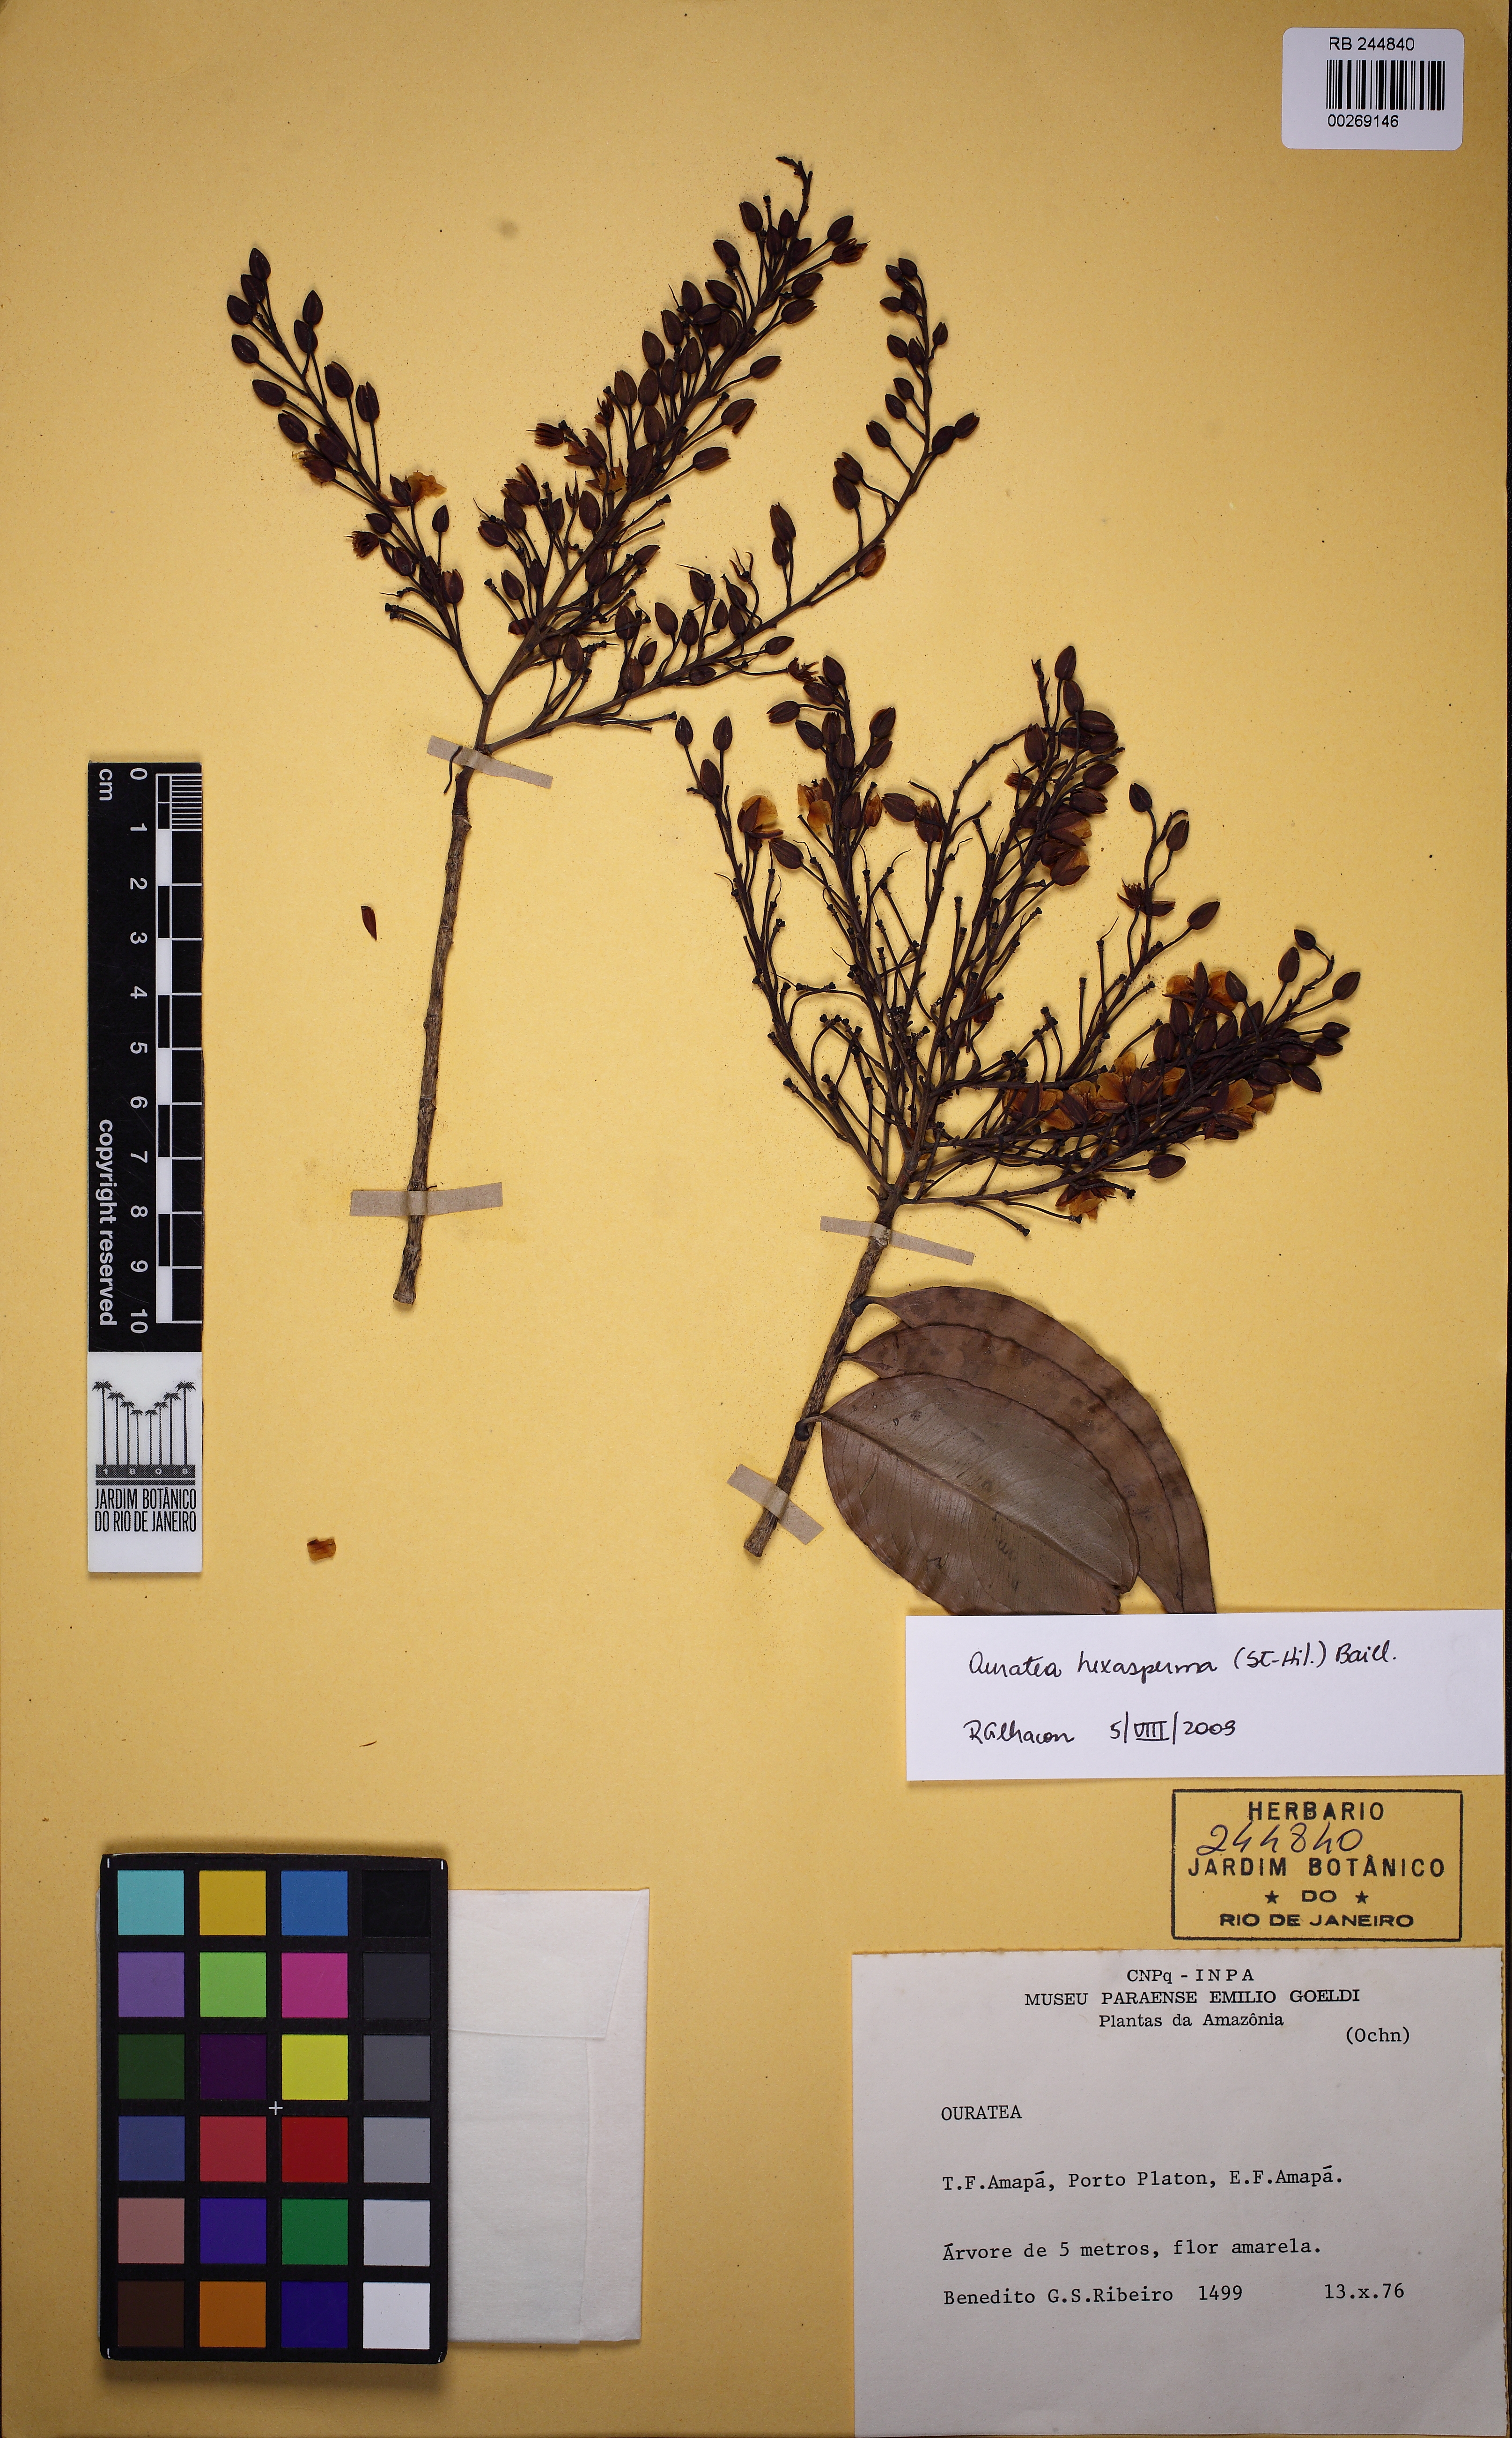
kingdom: Plantae
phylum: Tracheophyta
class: Magnoliopsida
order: Malpighiales
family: Ochnaceae
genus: Ouratea
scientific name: Ouratea hexasperma
